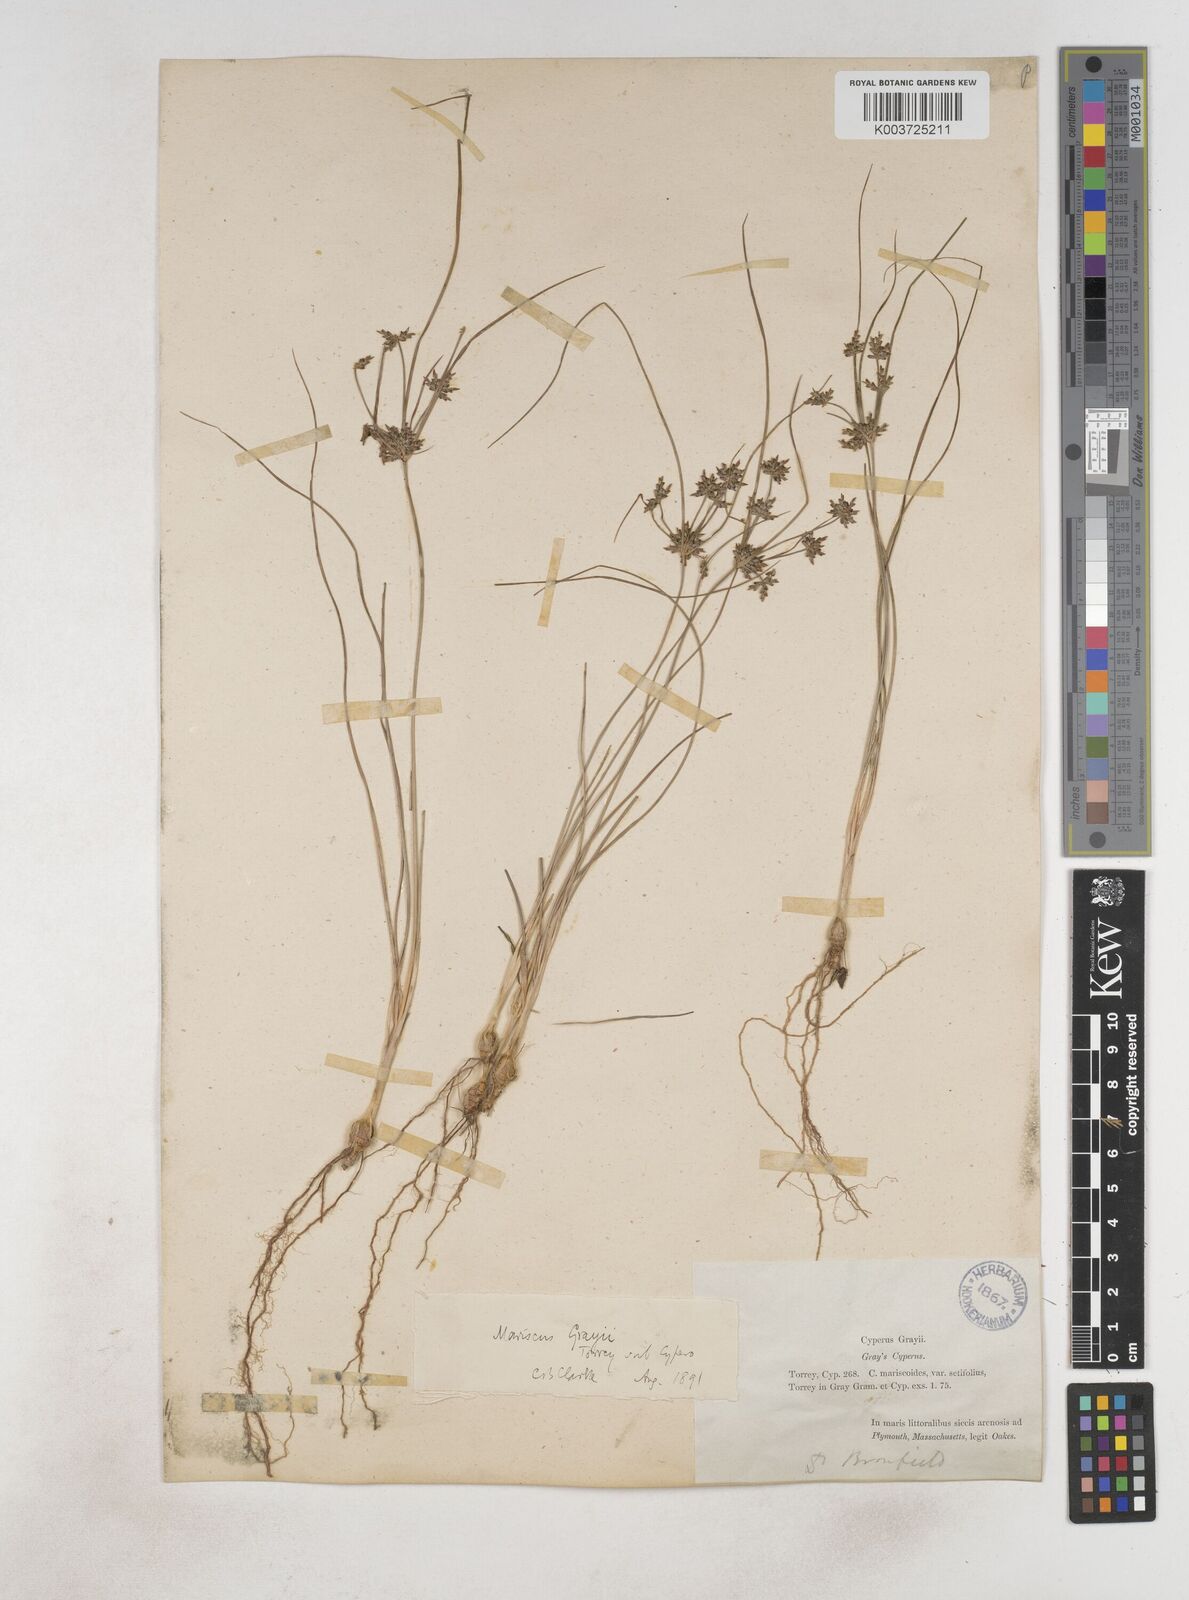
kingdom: Plantae
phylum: Tracheophyta
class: Liliopsida
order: Poales
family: Cyperaceae
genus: Cyperus
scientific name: Cyperus grayi
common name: Gray's flat sedge
